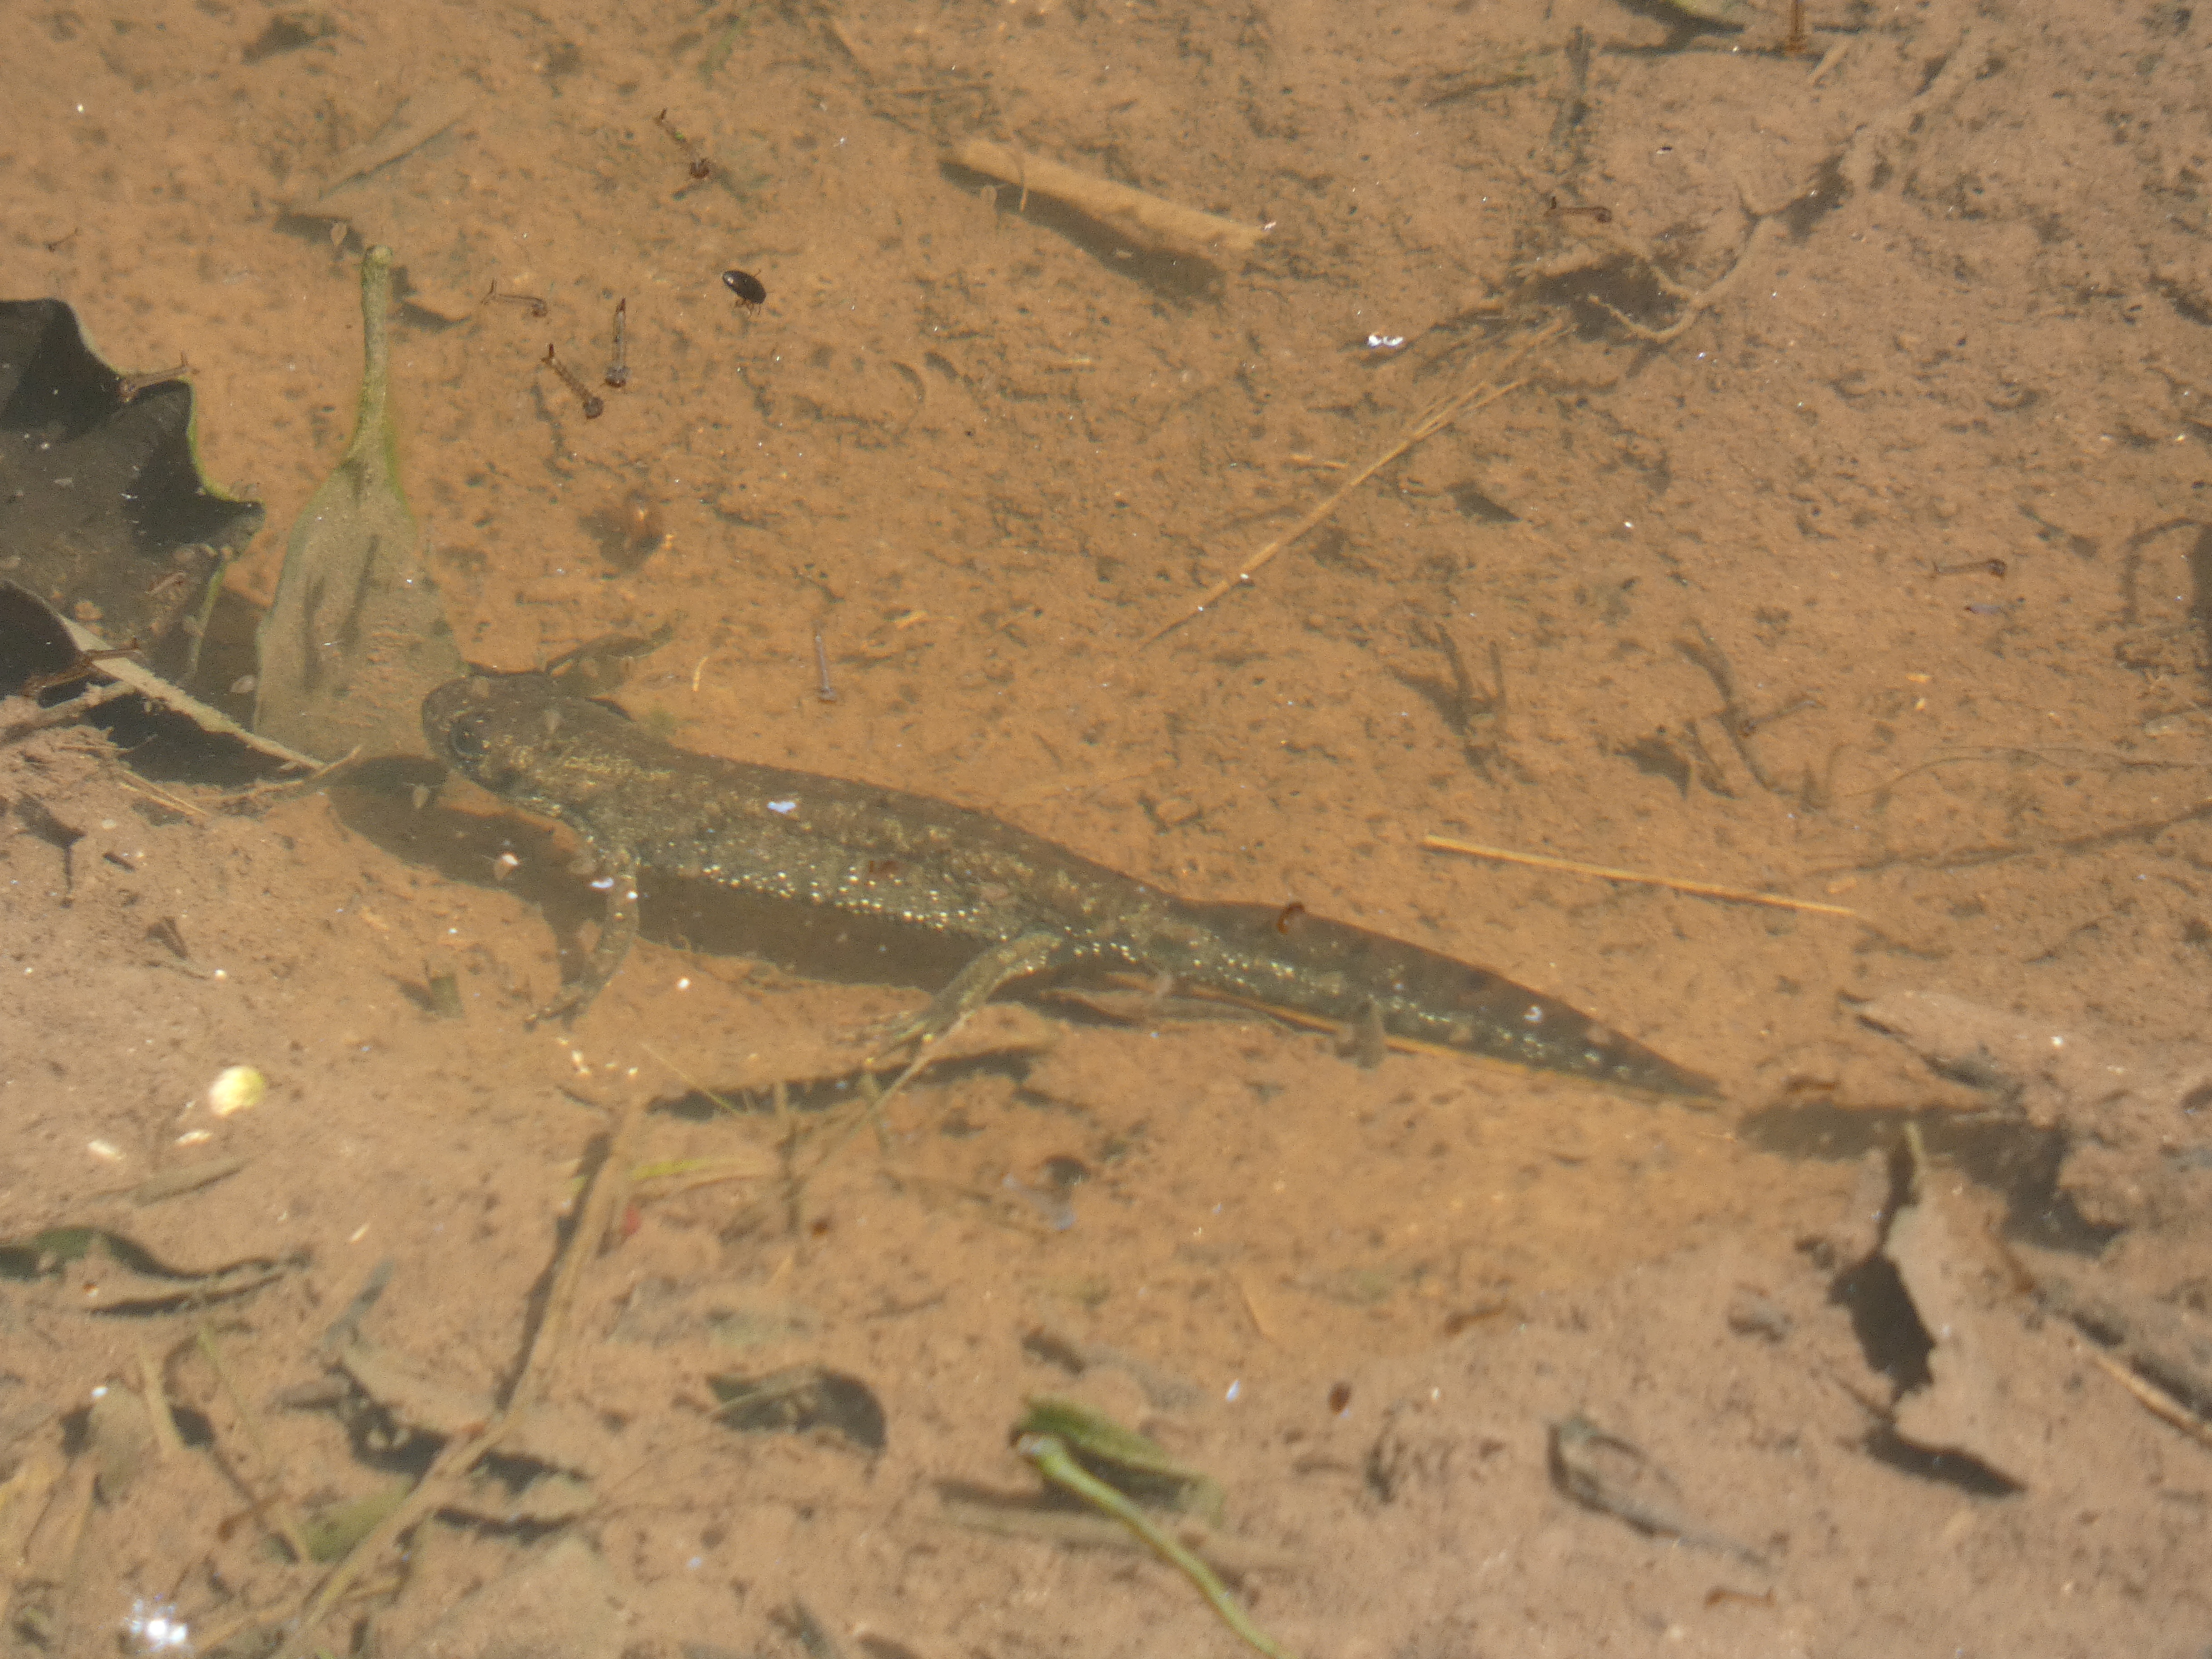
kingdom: Animalia
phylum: Chordata
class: Amphibia
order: Caudata
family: Salamandridae
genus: Triturus
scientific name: Triturus cristatus
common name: Stor vandsalamander
